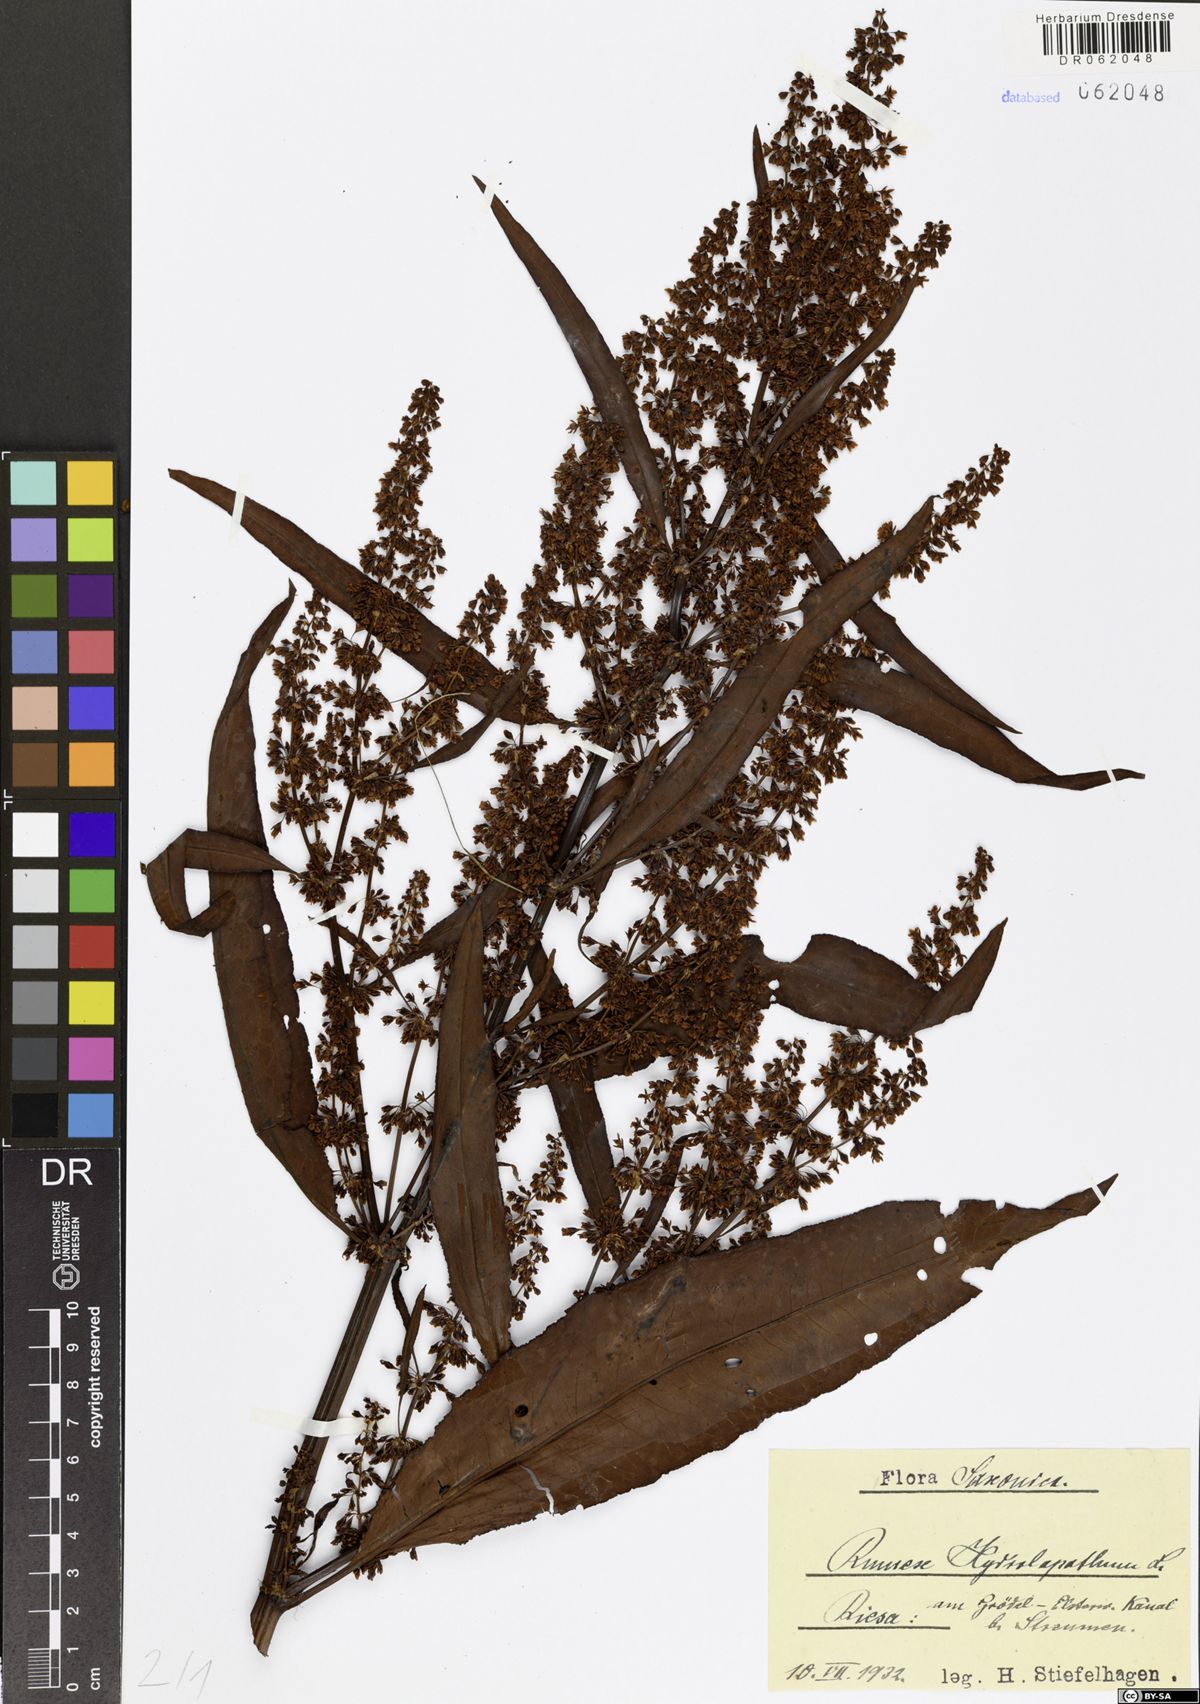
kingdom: Plantae
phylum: Tracheophyta
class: Magnoliopsida
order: Caryophyllales
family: Polygonaceae
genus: Rumex
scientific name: Rumex hydrolapathum
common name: Water dock
